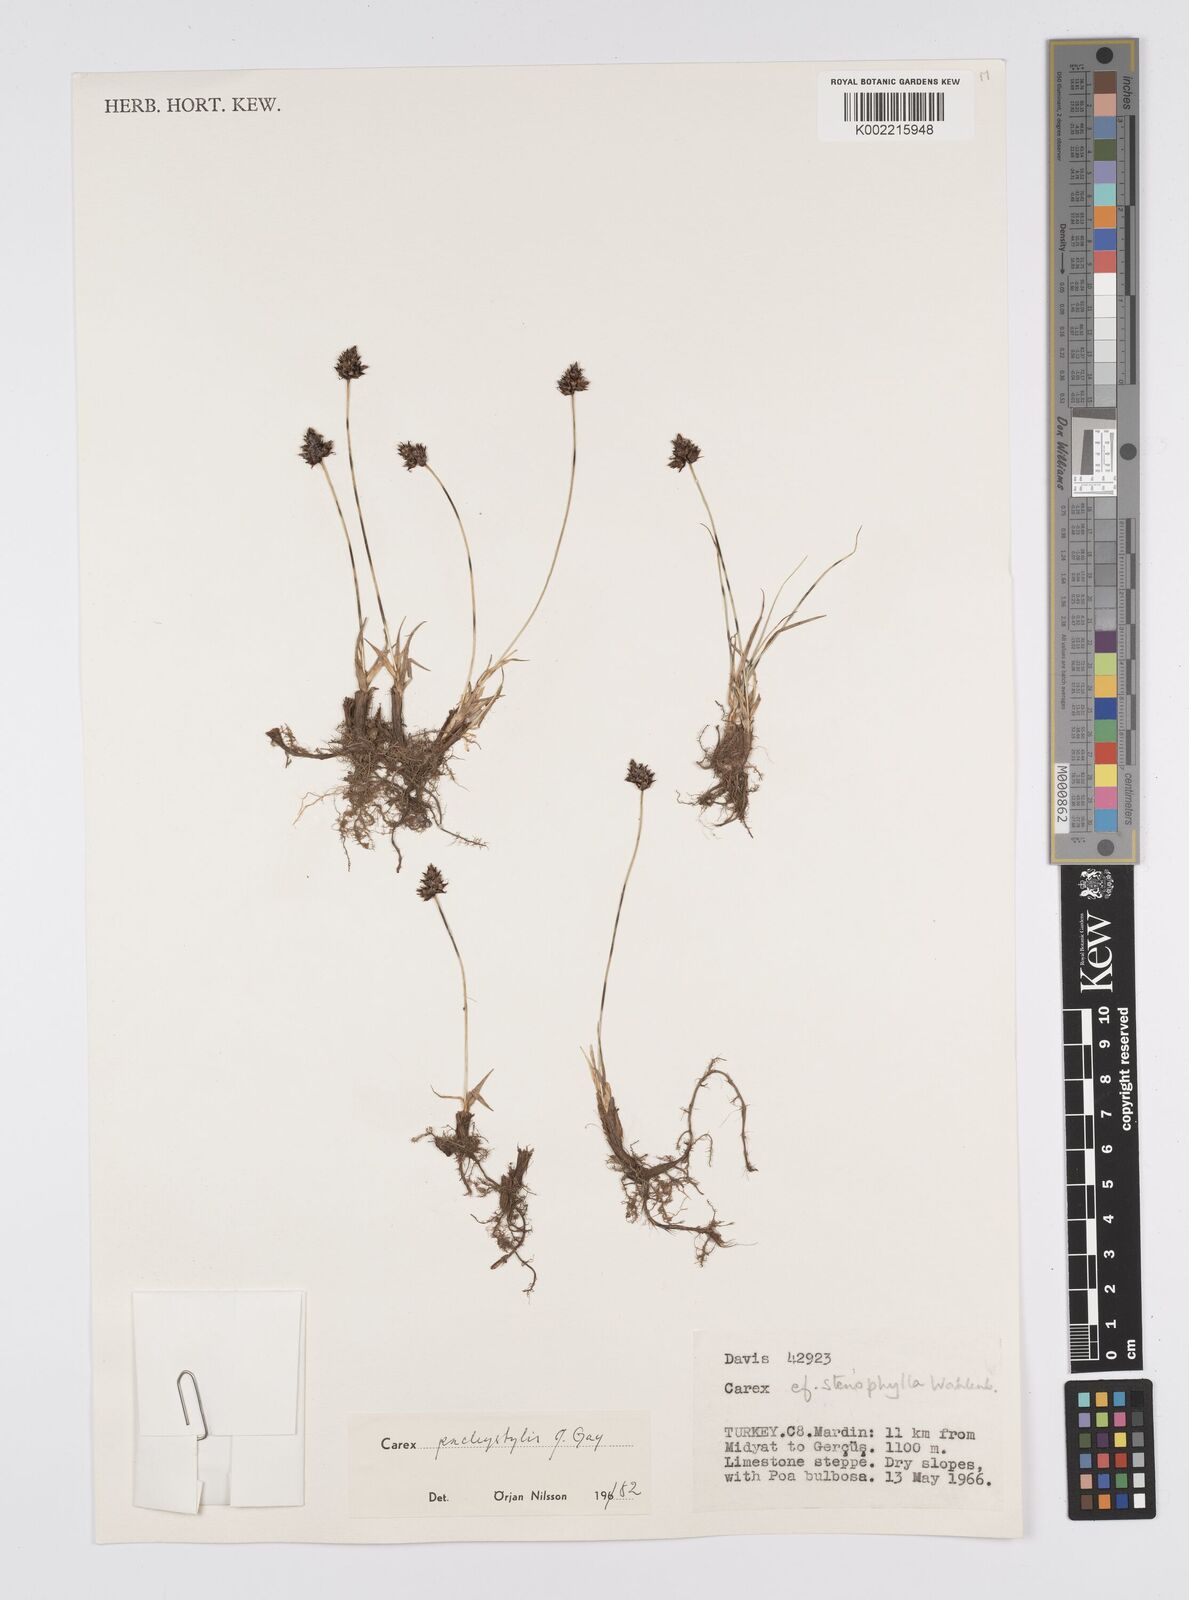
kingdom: Plantae
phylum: Tracheophyta
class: Liliopsida
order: Poales
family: Cyperaceae
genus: Carex
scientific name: Carex pachystylis
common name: Thick-stem sedge
